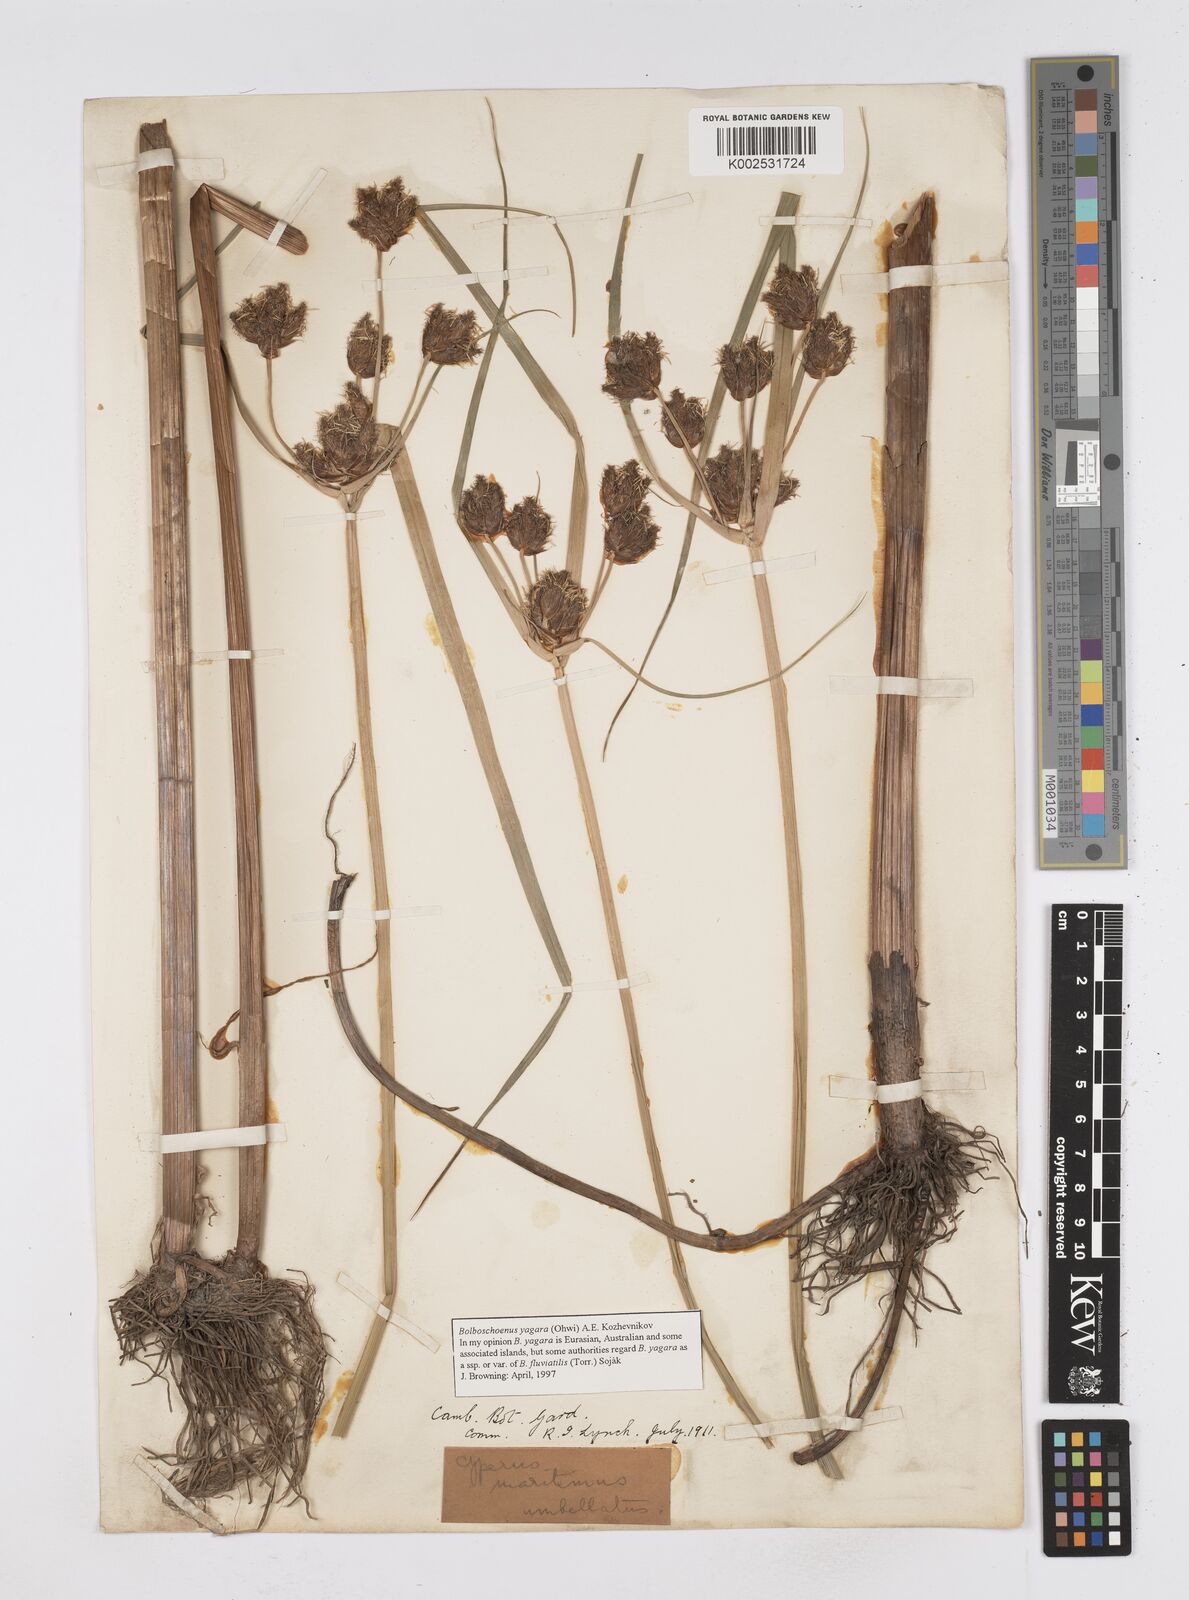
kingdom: Plantae
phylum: Tracheophyta
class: Liliopsida
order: Poales
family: Cyperaceae
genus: Bolboschoenus
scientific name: Bolboschoenus yagara
